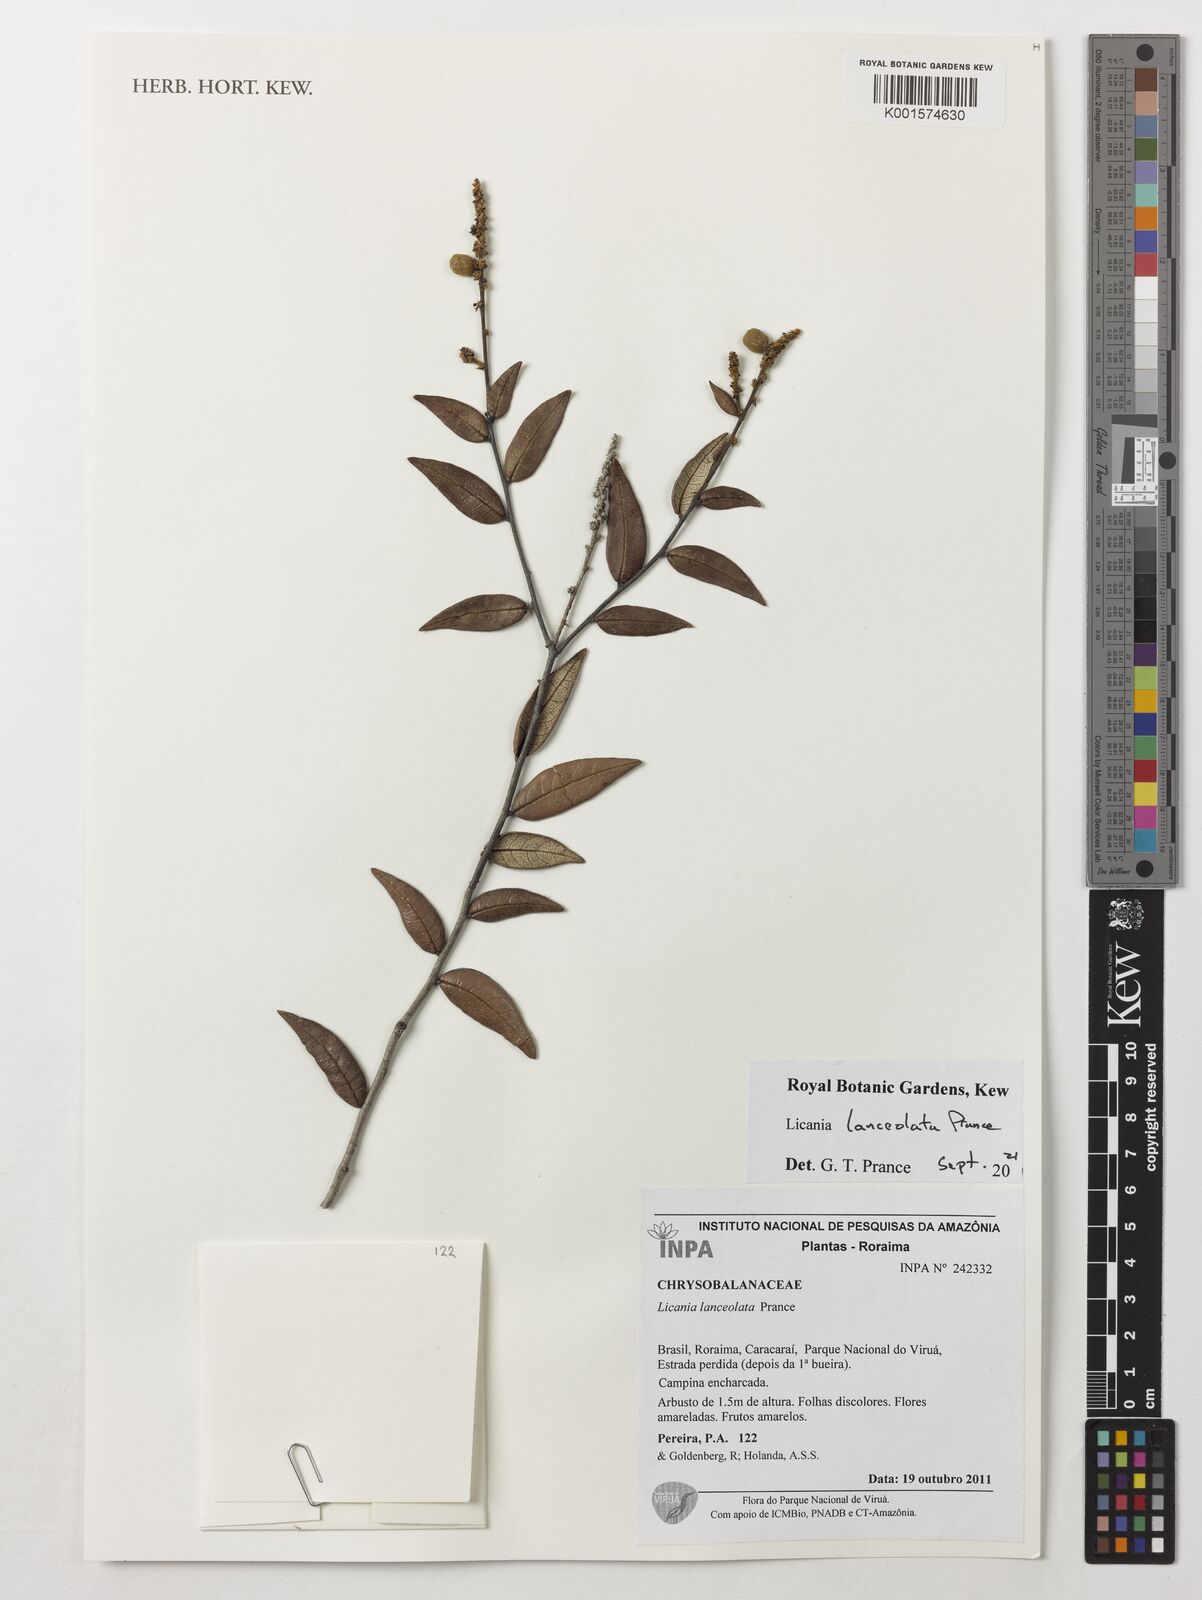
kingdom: Plantae
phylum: Tracheophyta
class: Magnoliopsida
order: Malpighiales
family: Chrysobalanaceae
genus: Licania
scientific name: Licania lanceolata
